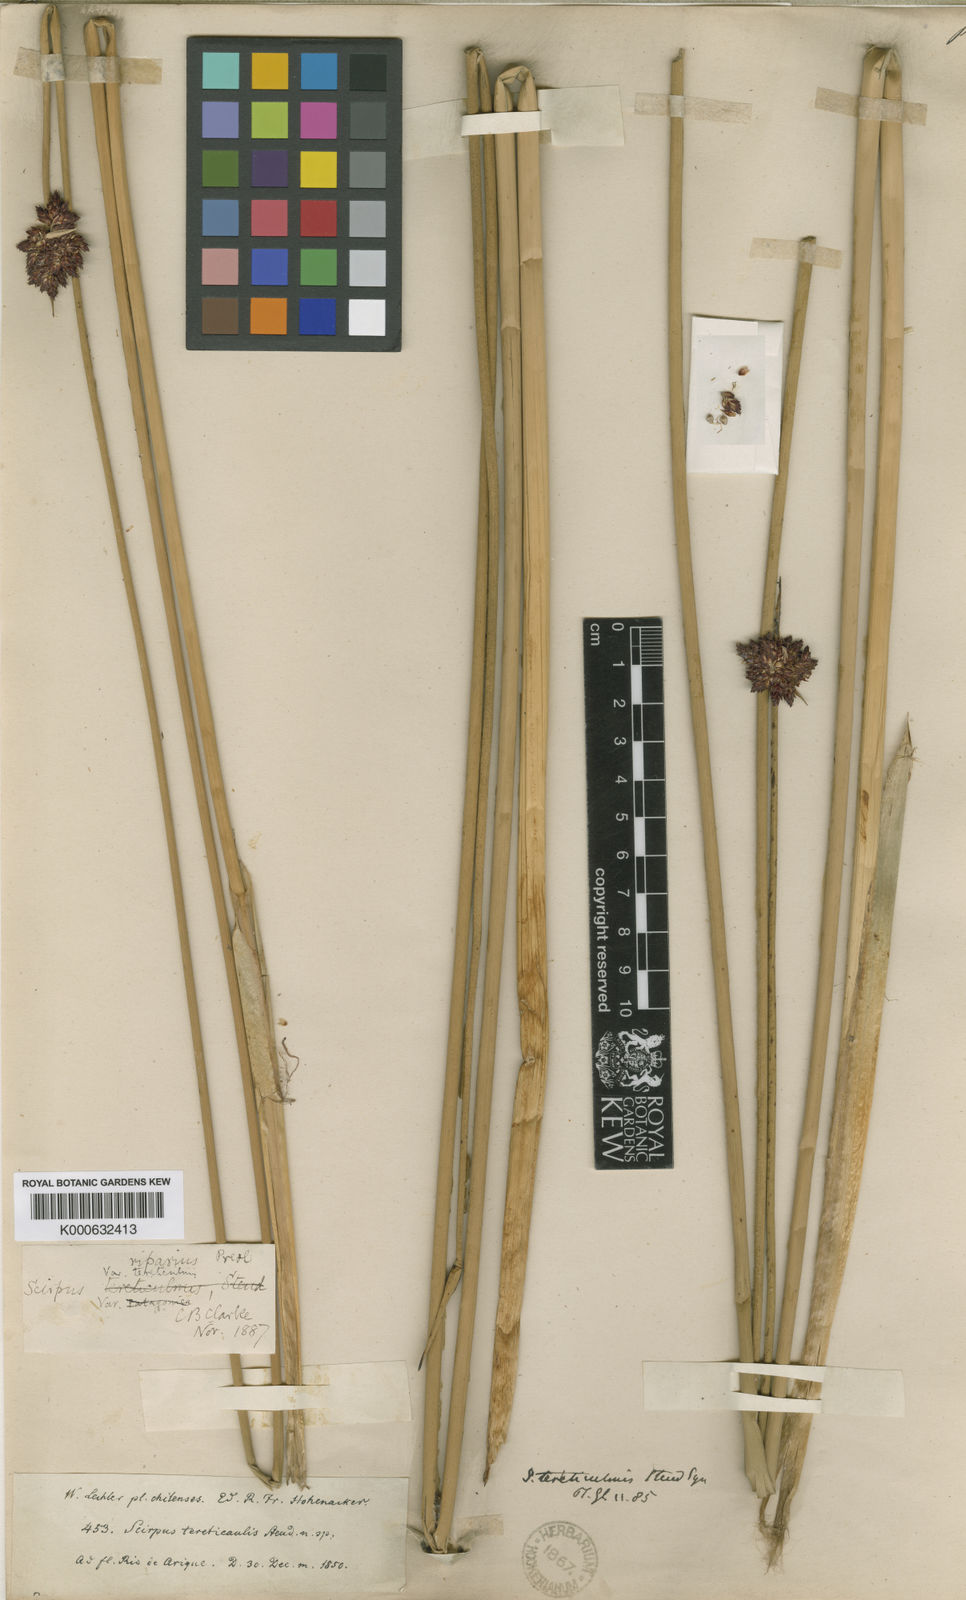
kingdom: Plantae
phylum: Tracheophyta
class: Liliopsida
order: Poales
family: Cyperaceae
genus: Schoenoplectus
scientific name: Schoenoplectus californicus
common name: California bulrush
